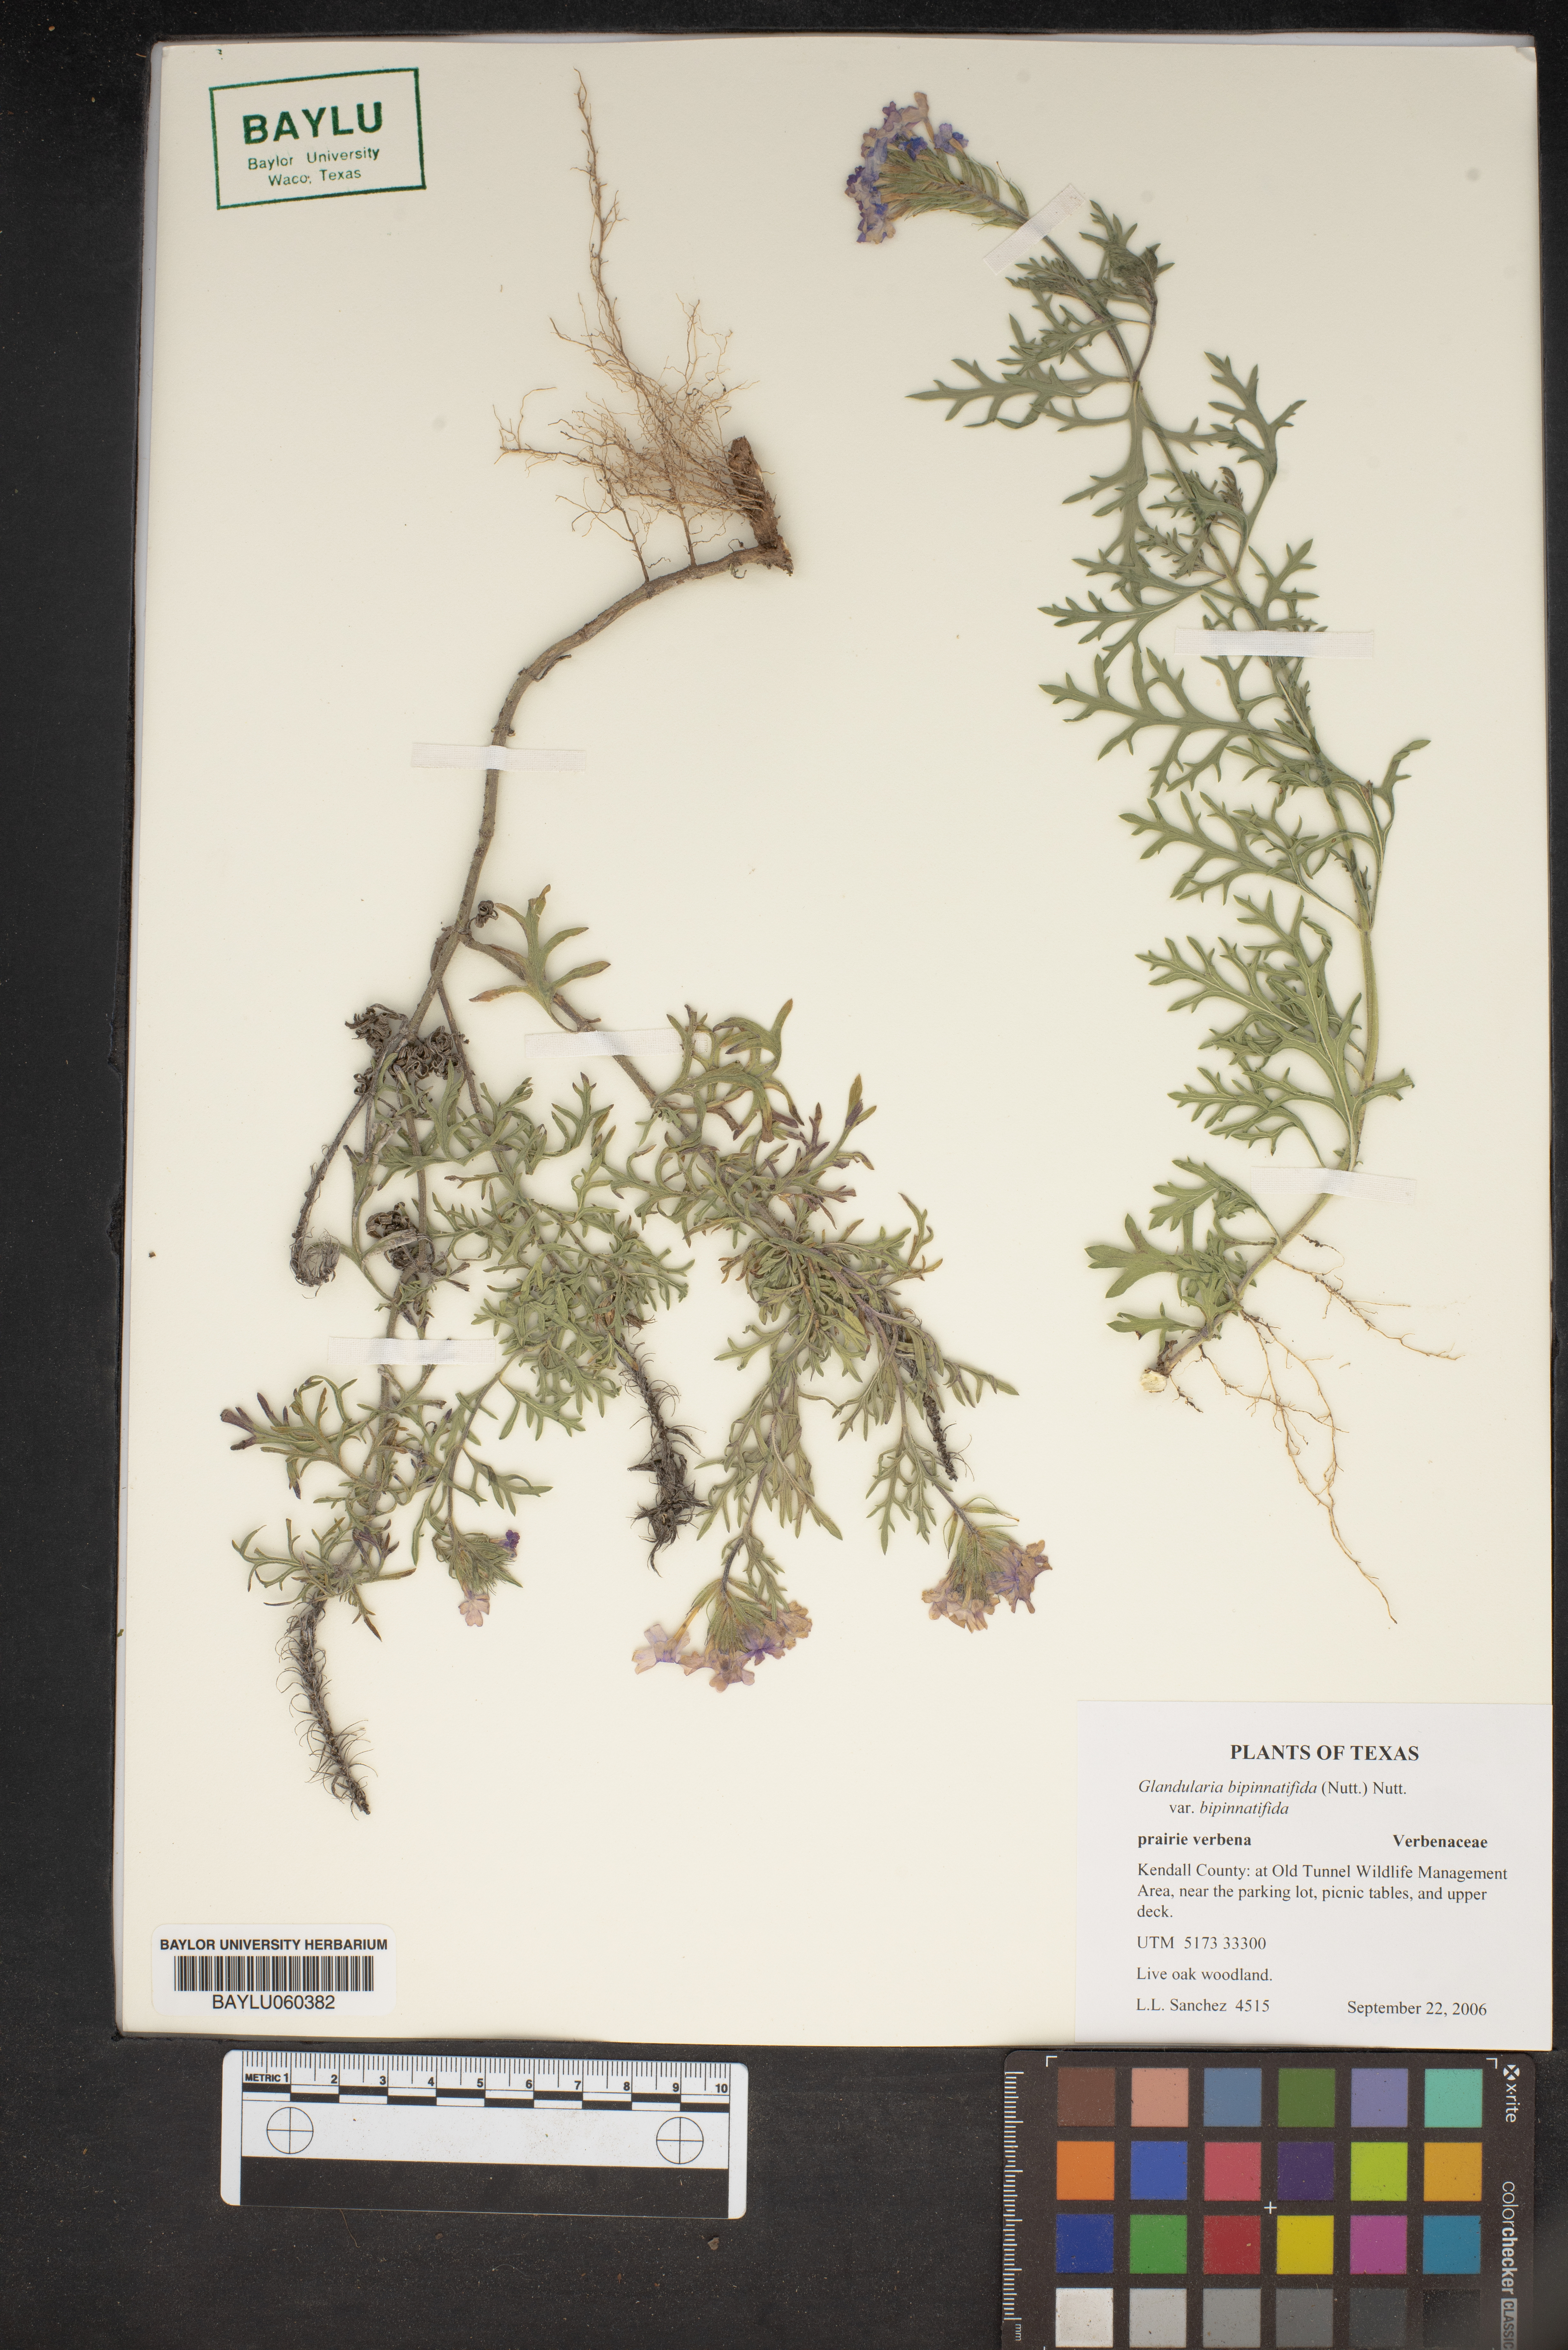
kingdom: Plantae
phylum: Tracheophyta
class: Magnoliopsida
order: Lamiales
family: Verbenaceae
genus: Verbena
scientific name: Verbena bipinnatifida
